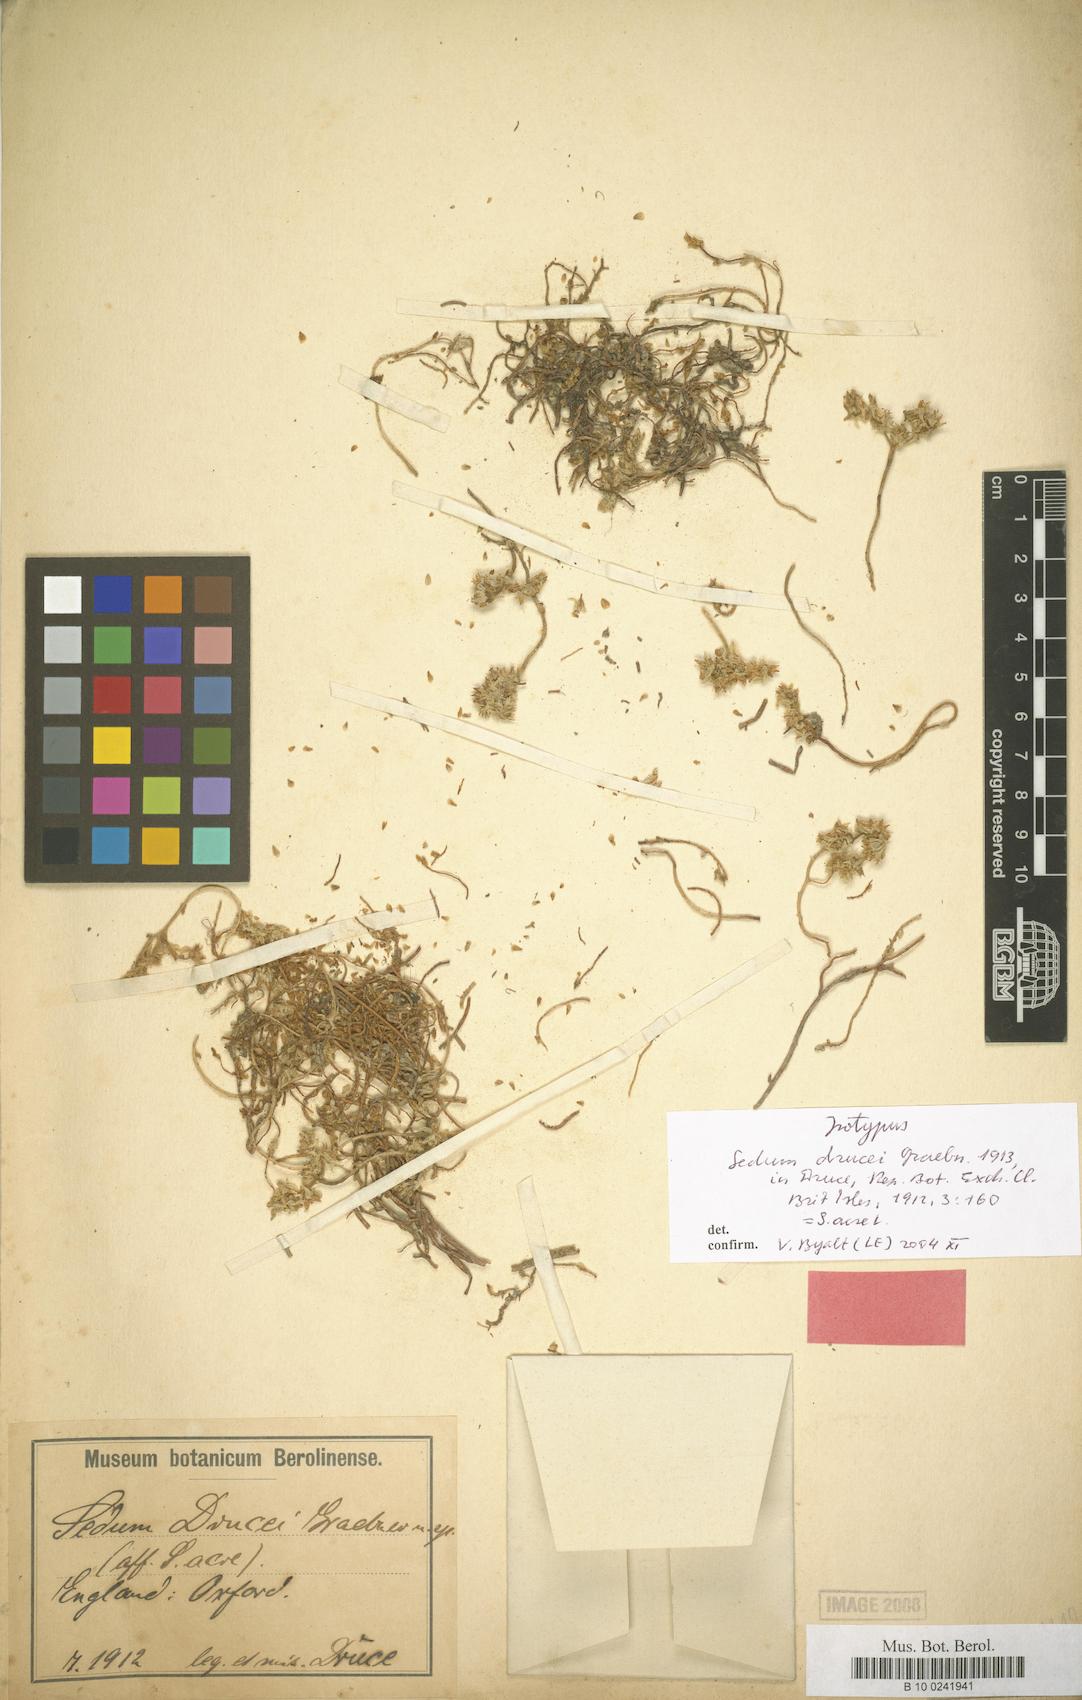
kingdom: Plantae
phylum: Tracheophyta
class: Magnoliopsida
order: Saxifragales
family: Crassulaceae
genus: Sedum
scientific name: Sedum acre
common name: Biting stonecrop
